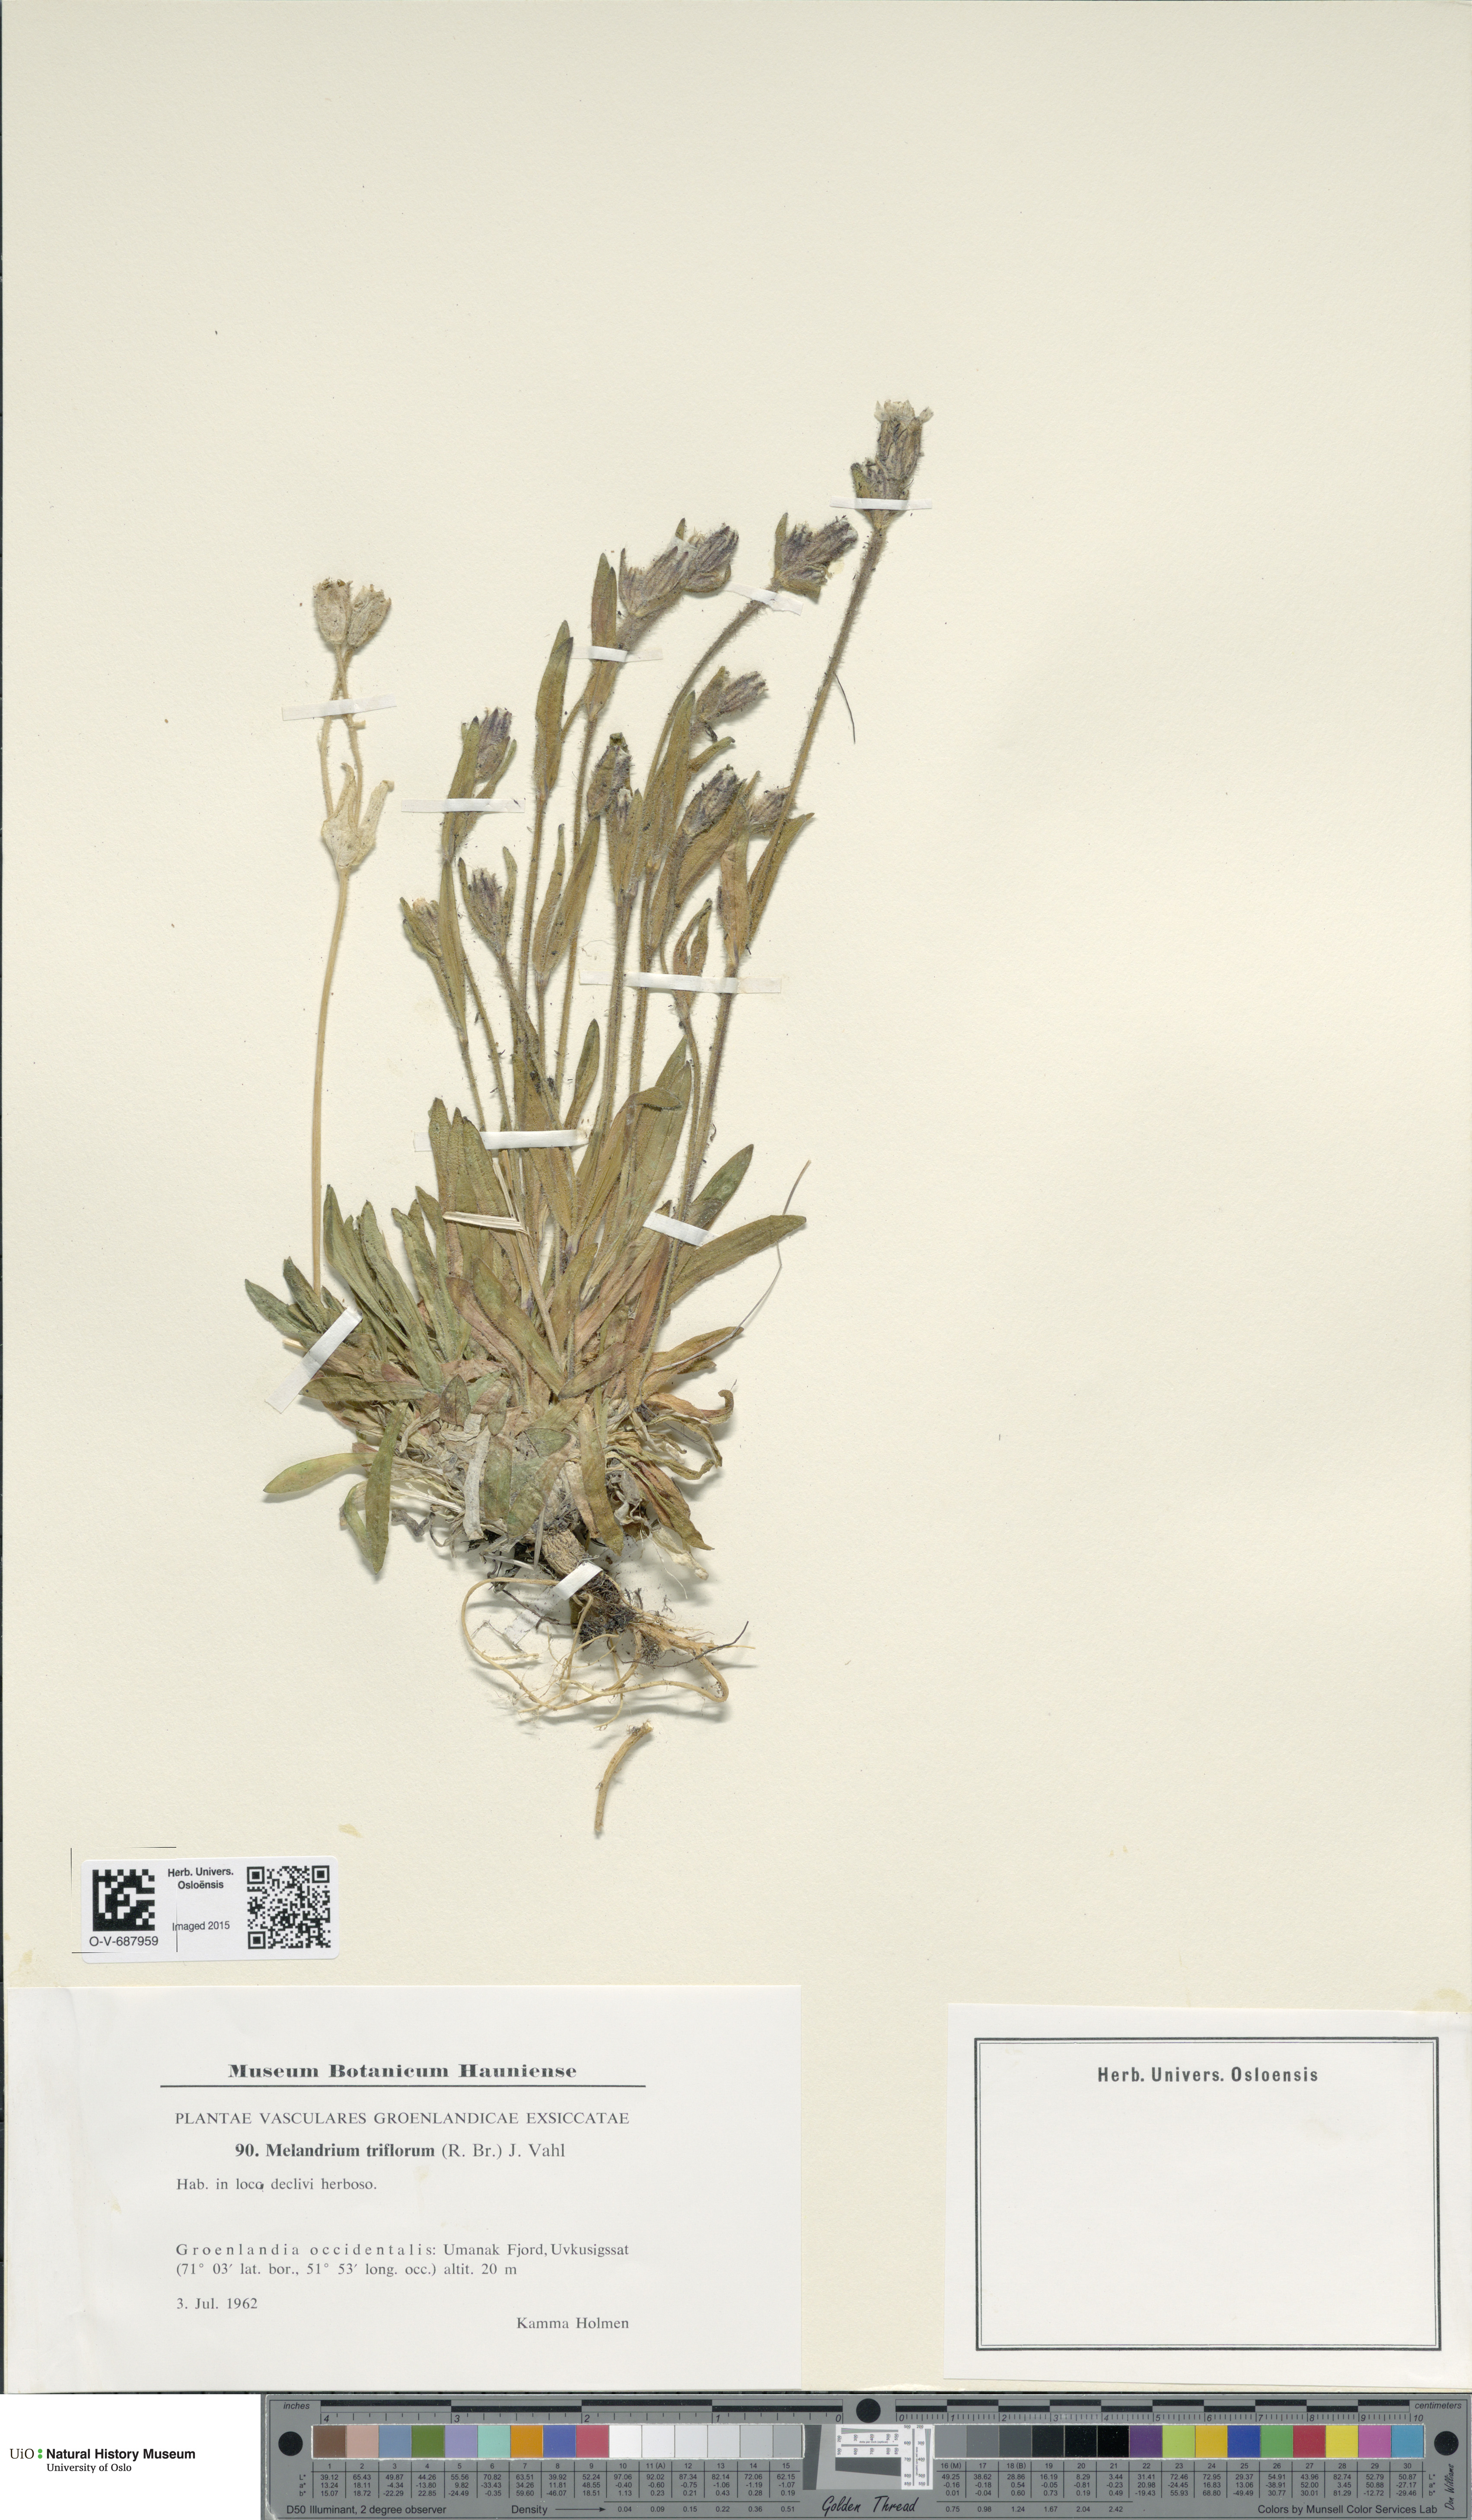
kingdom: Plantae
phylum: Tracheophyta
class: Magnoliopsida
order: Caryophyllales
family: Caryophyllaceae
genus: Silene
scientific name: Silene sorensenis
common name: Sorensen's campion
